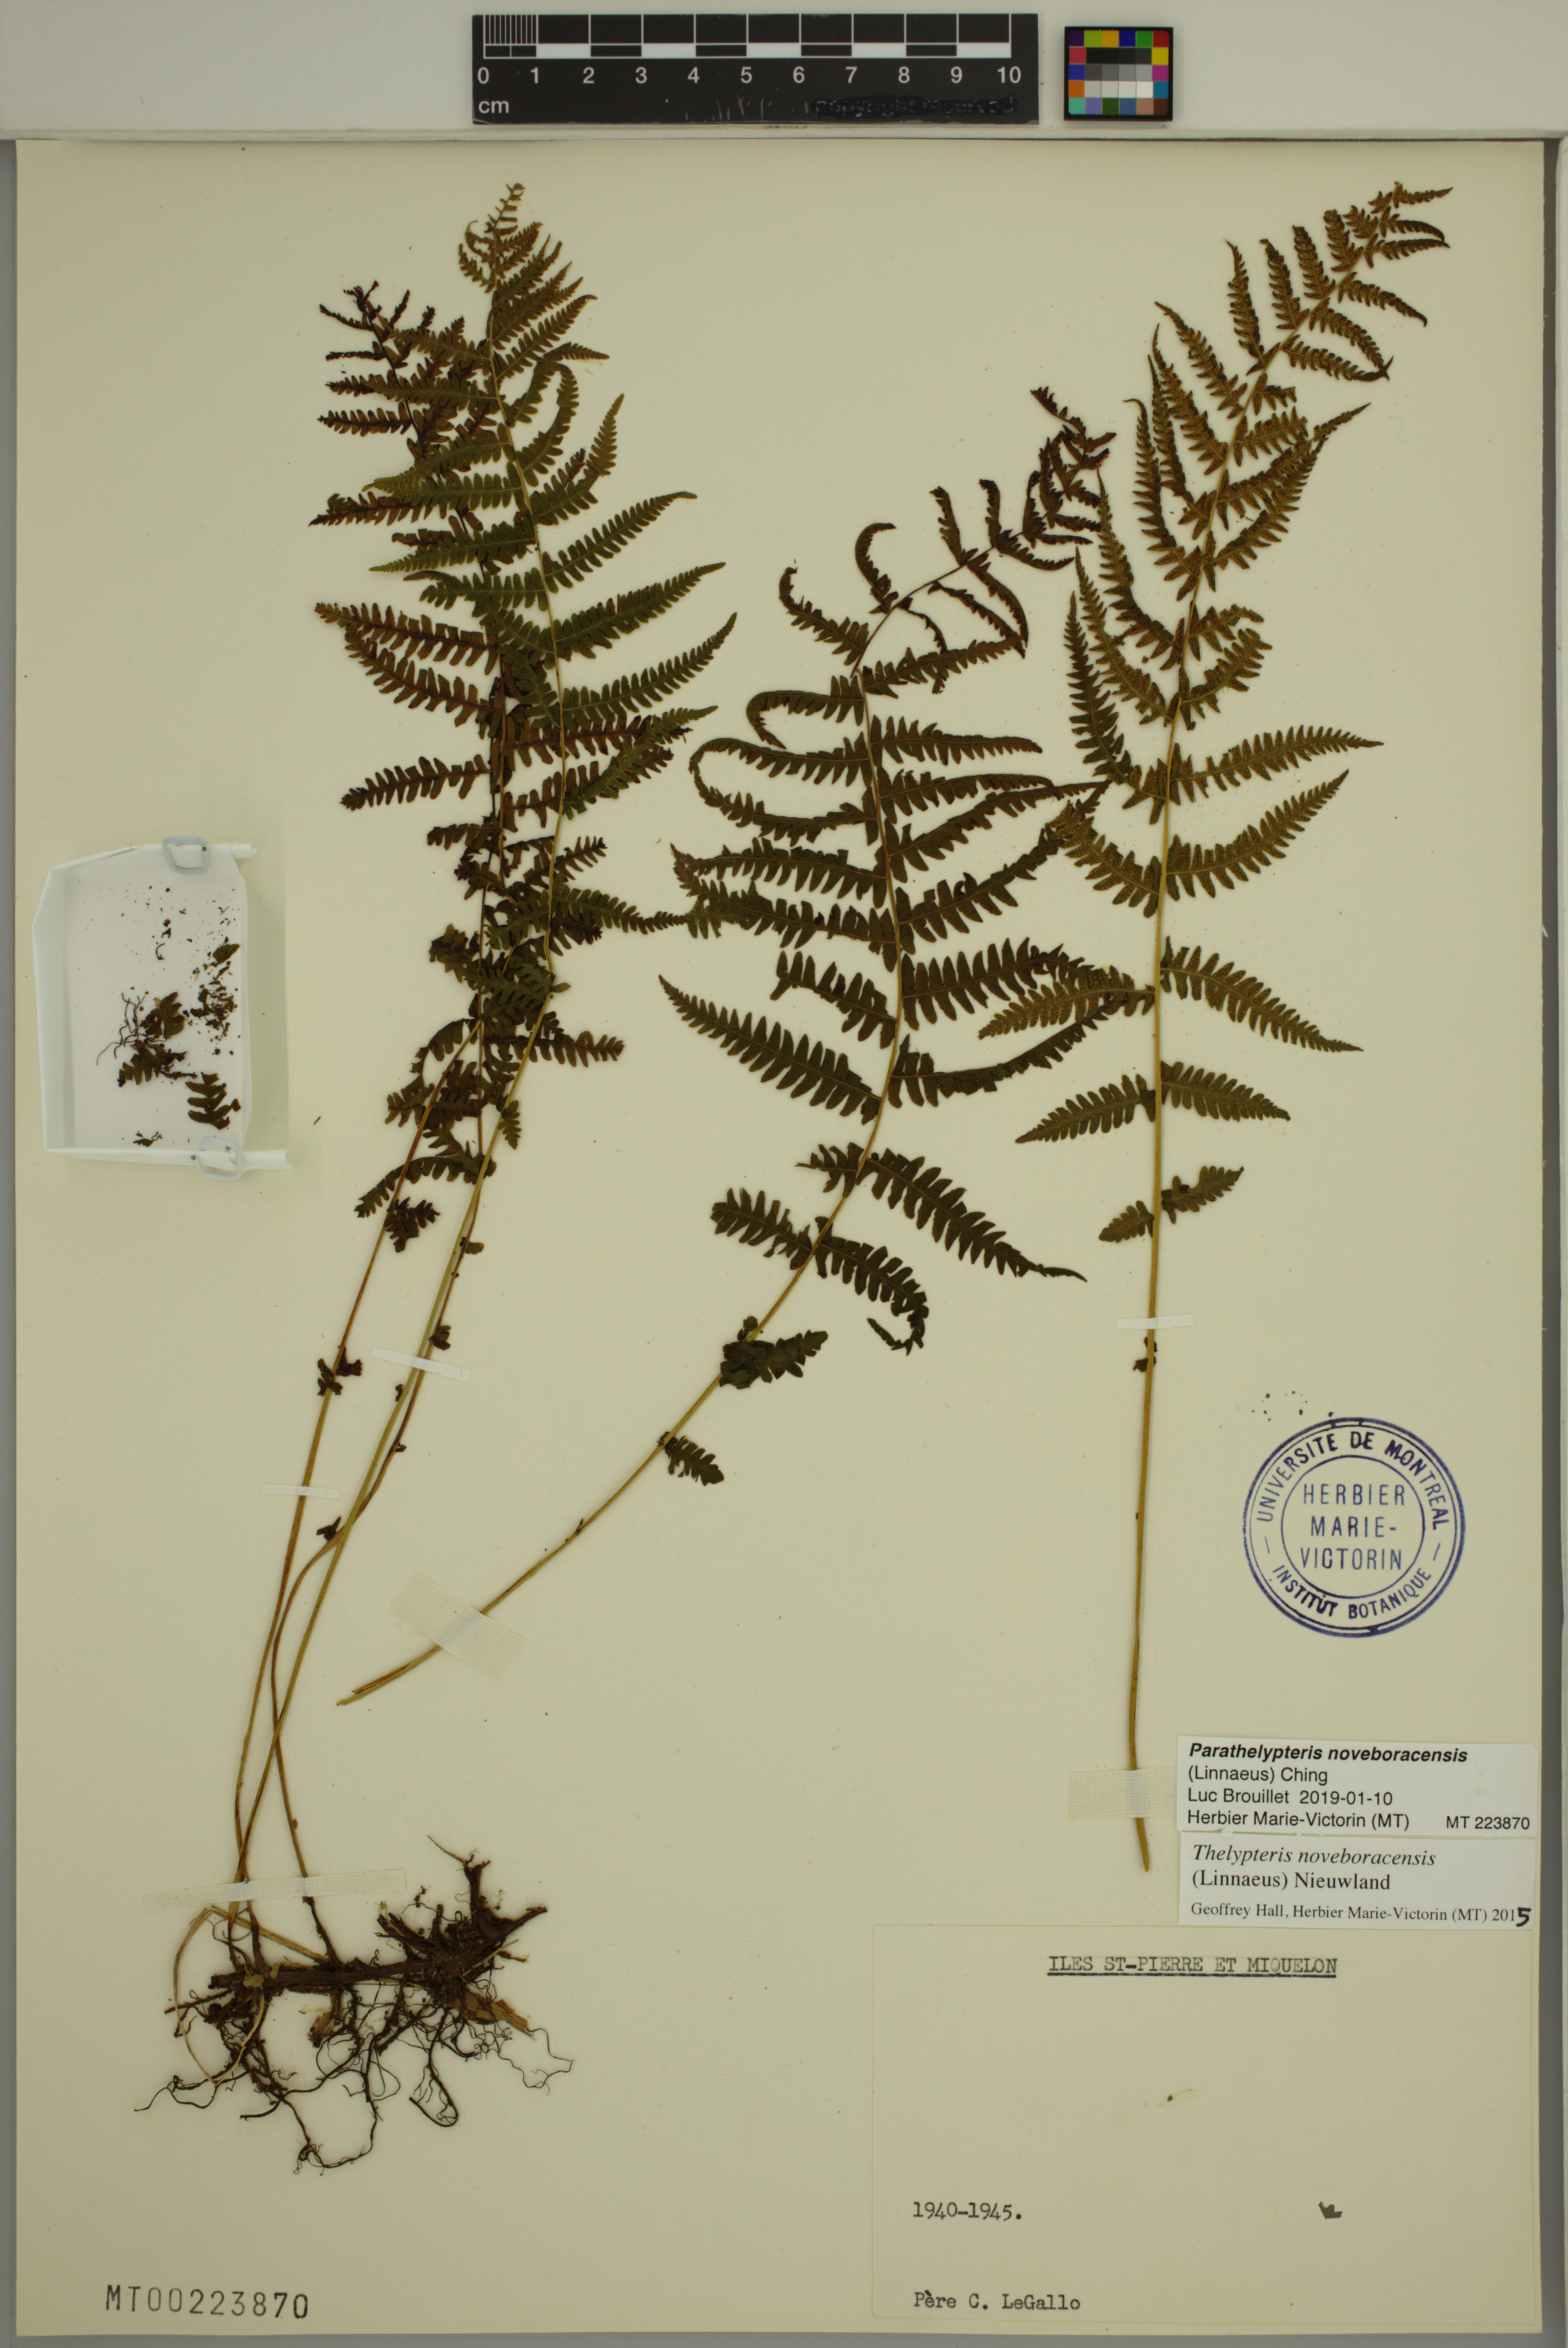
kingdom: Plantae
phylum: Tracheophyta
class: Polypodiopsida
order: Polypodiales
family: Thelypteridaceae
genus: Amauropelta
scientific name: Amauropelta noveboracensis
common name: New york fern
